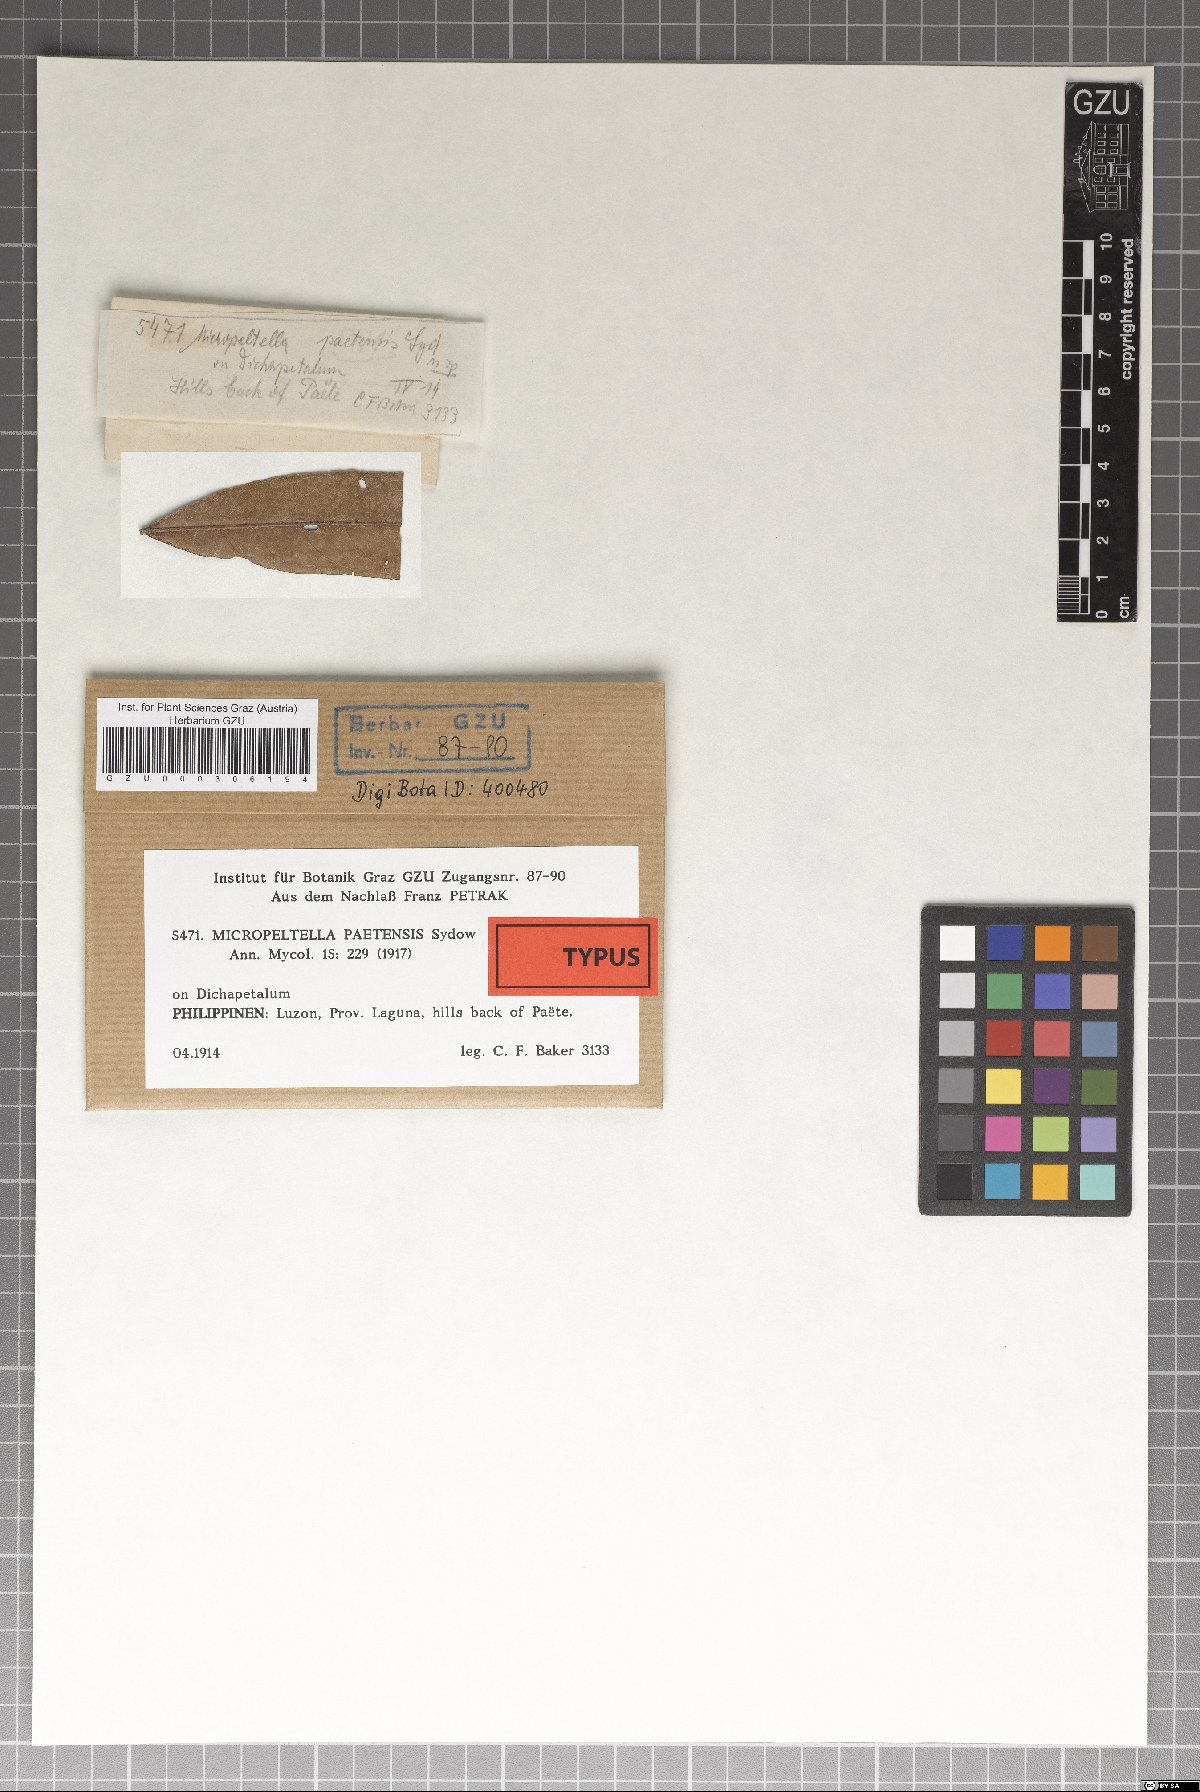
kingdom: Fungi
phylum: Ascomycota
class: Dothideomycetes
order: Microthyriales
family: Micropeltidaceae
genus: Micropeltella
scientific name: Micropeltella paetensis
